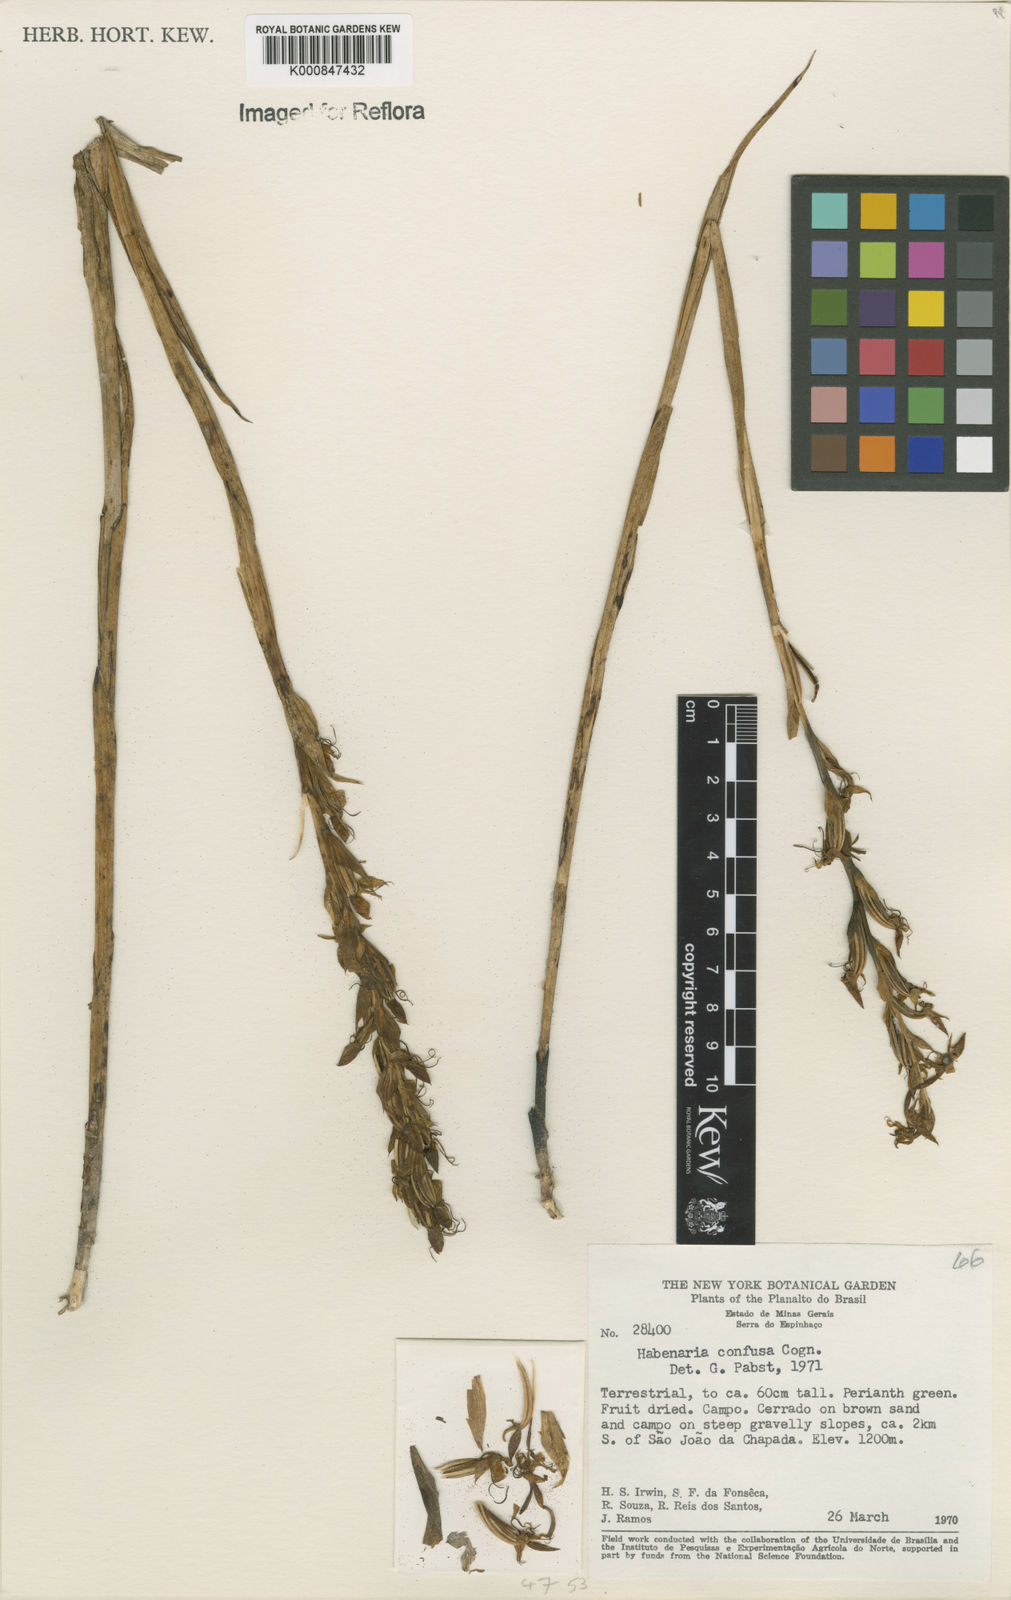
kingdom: Plantae
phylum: Tracheophyta
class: Liliopsida
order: Asparagales
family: Orchidaceae
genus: Habenaria
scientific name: Habenaria secundiflora
